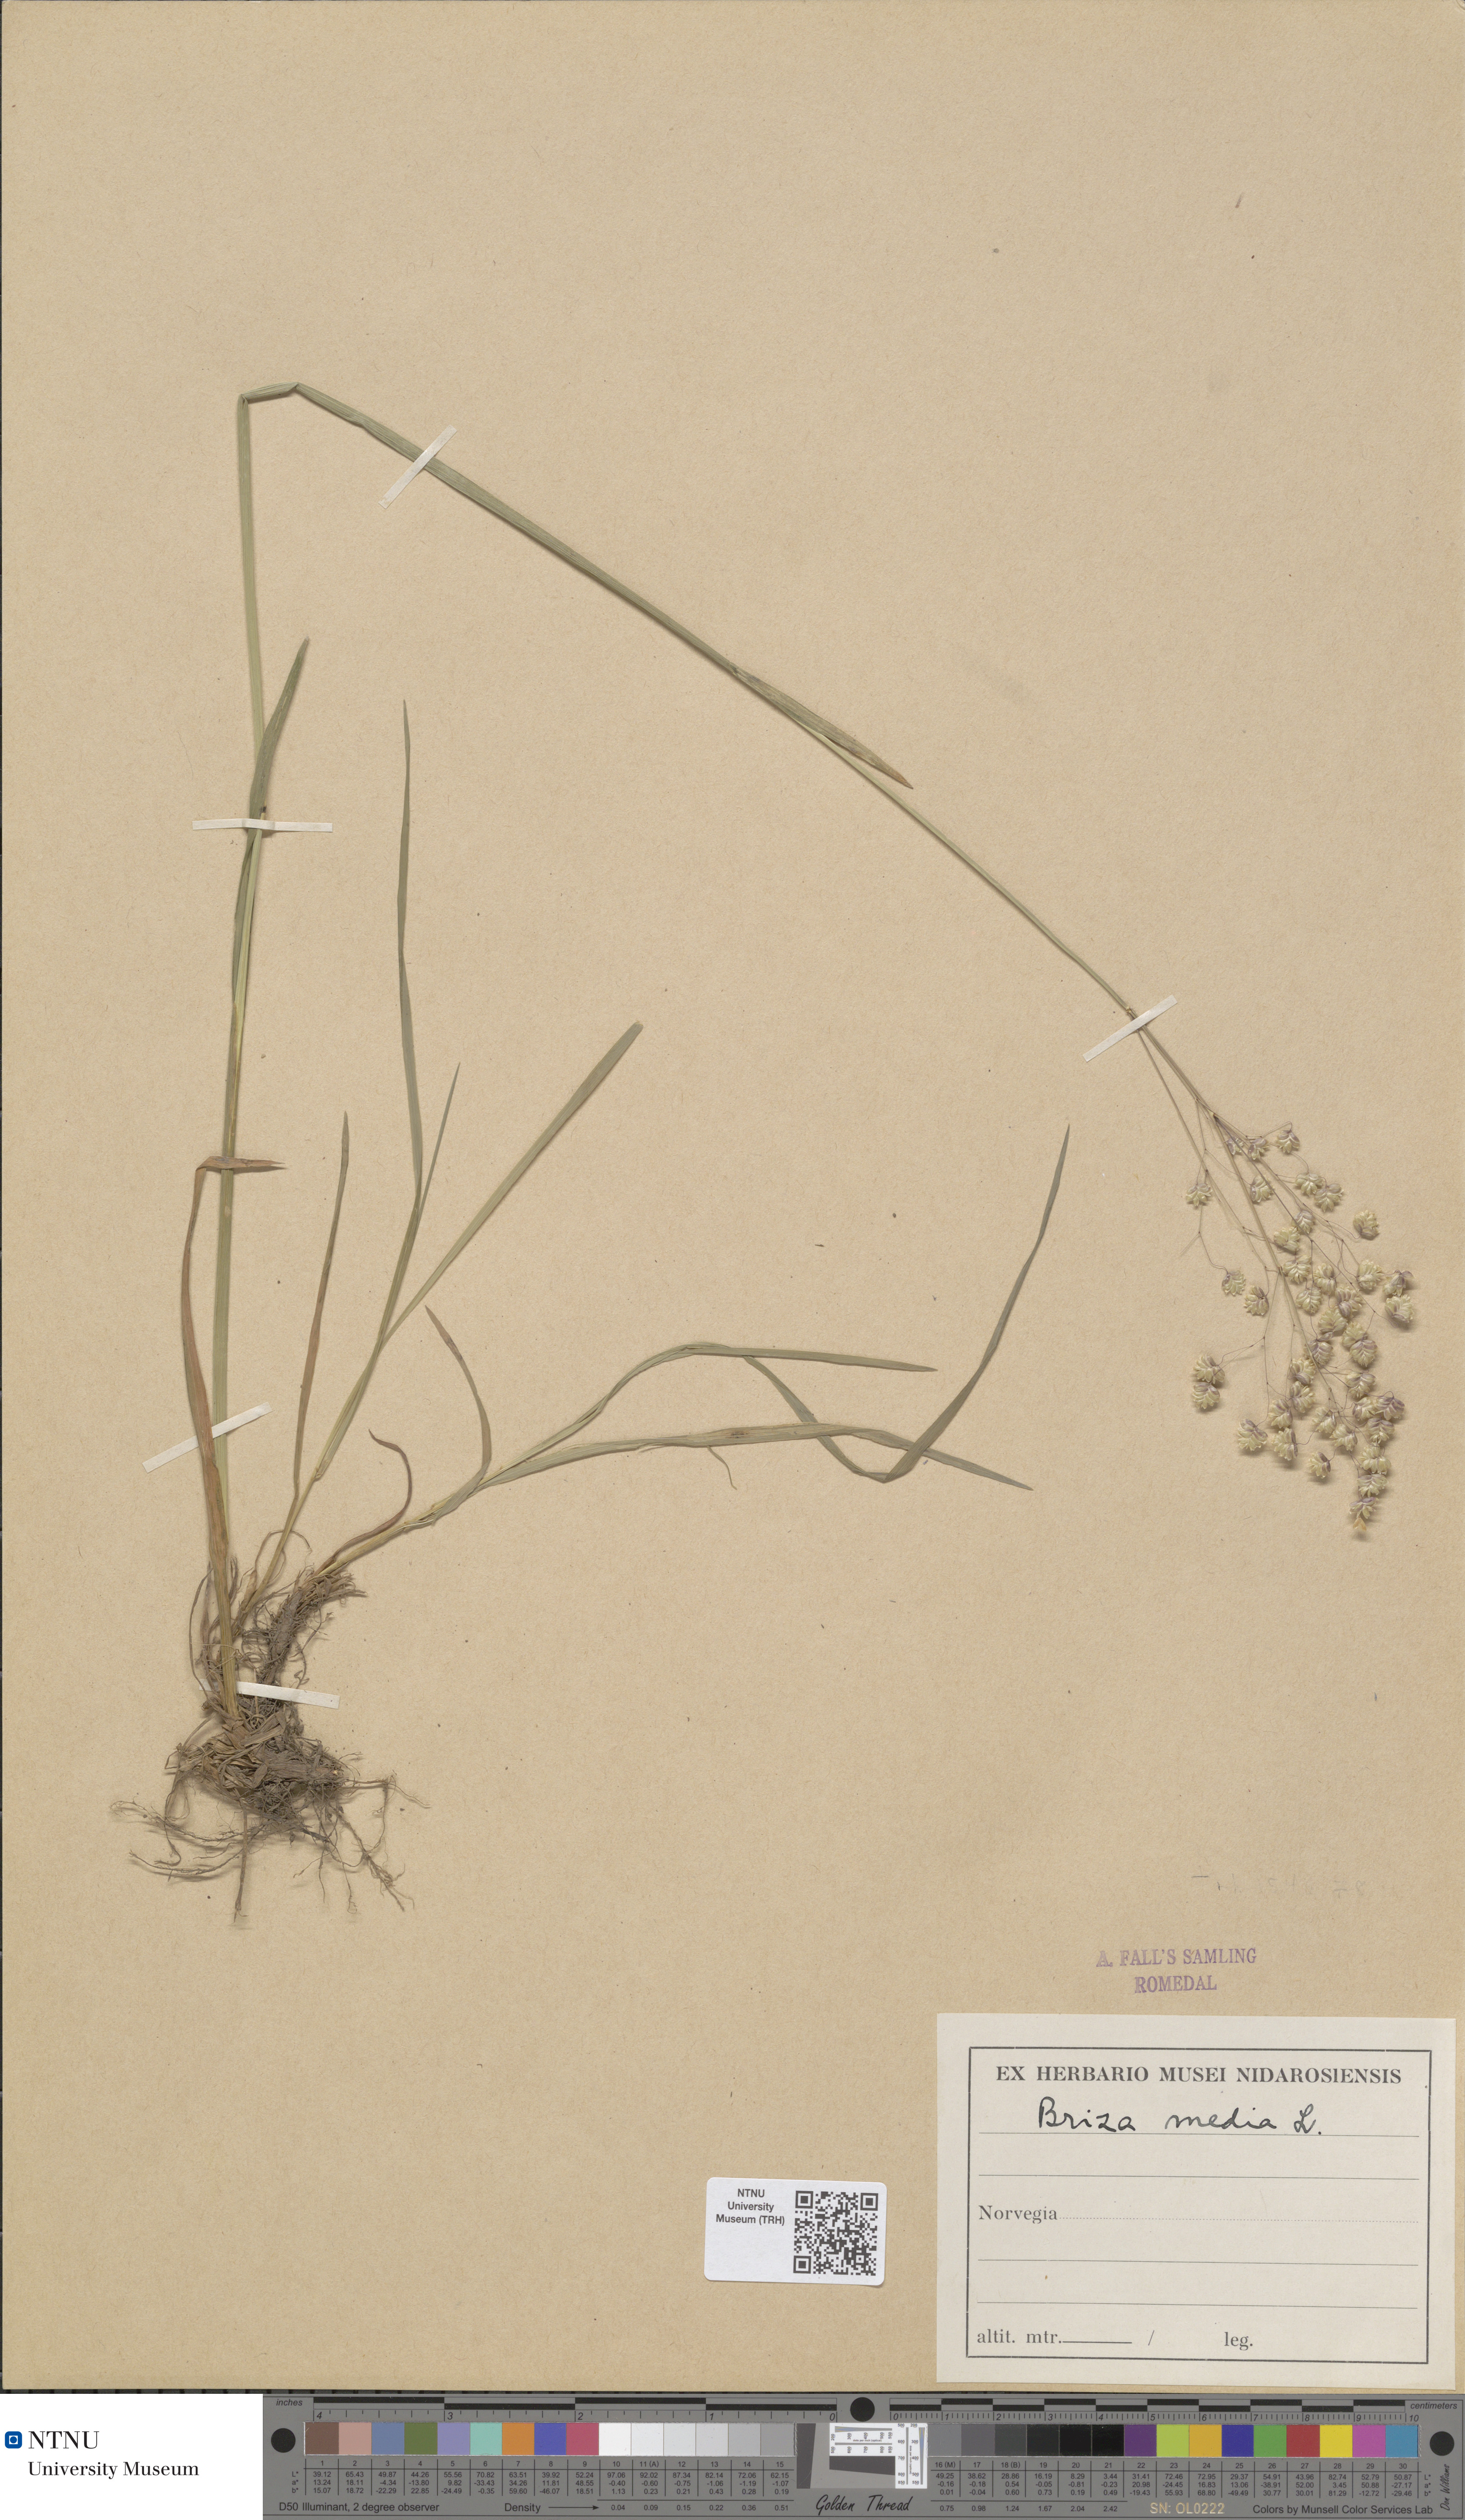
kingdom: Plantae
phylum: Tracheophyta
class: Liliopsida
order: Poales
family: Poaceae
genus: Briza
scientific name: Briza media
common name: Quaking grass
